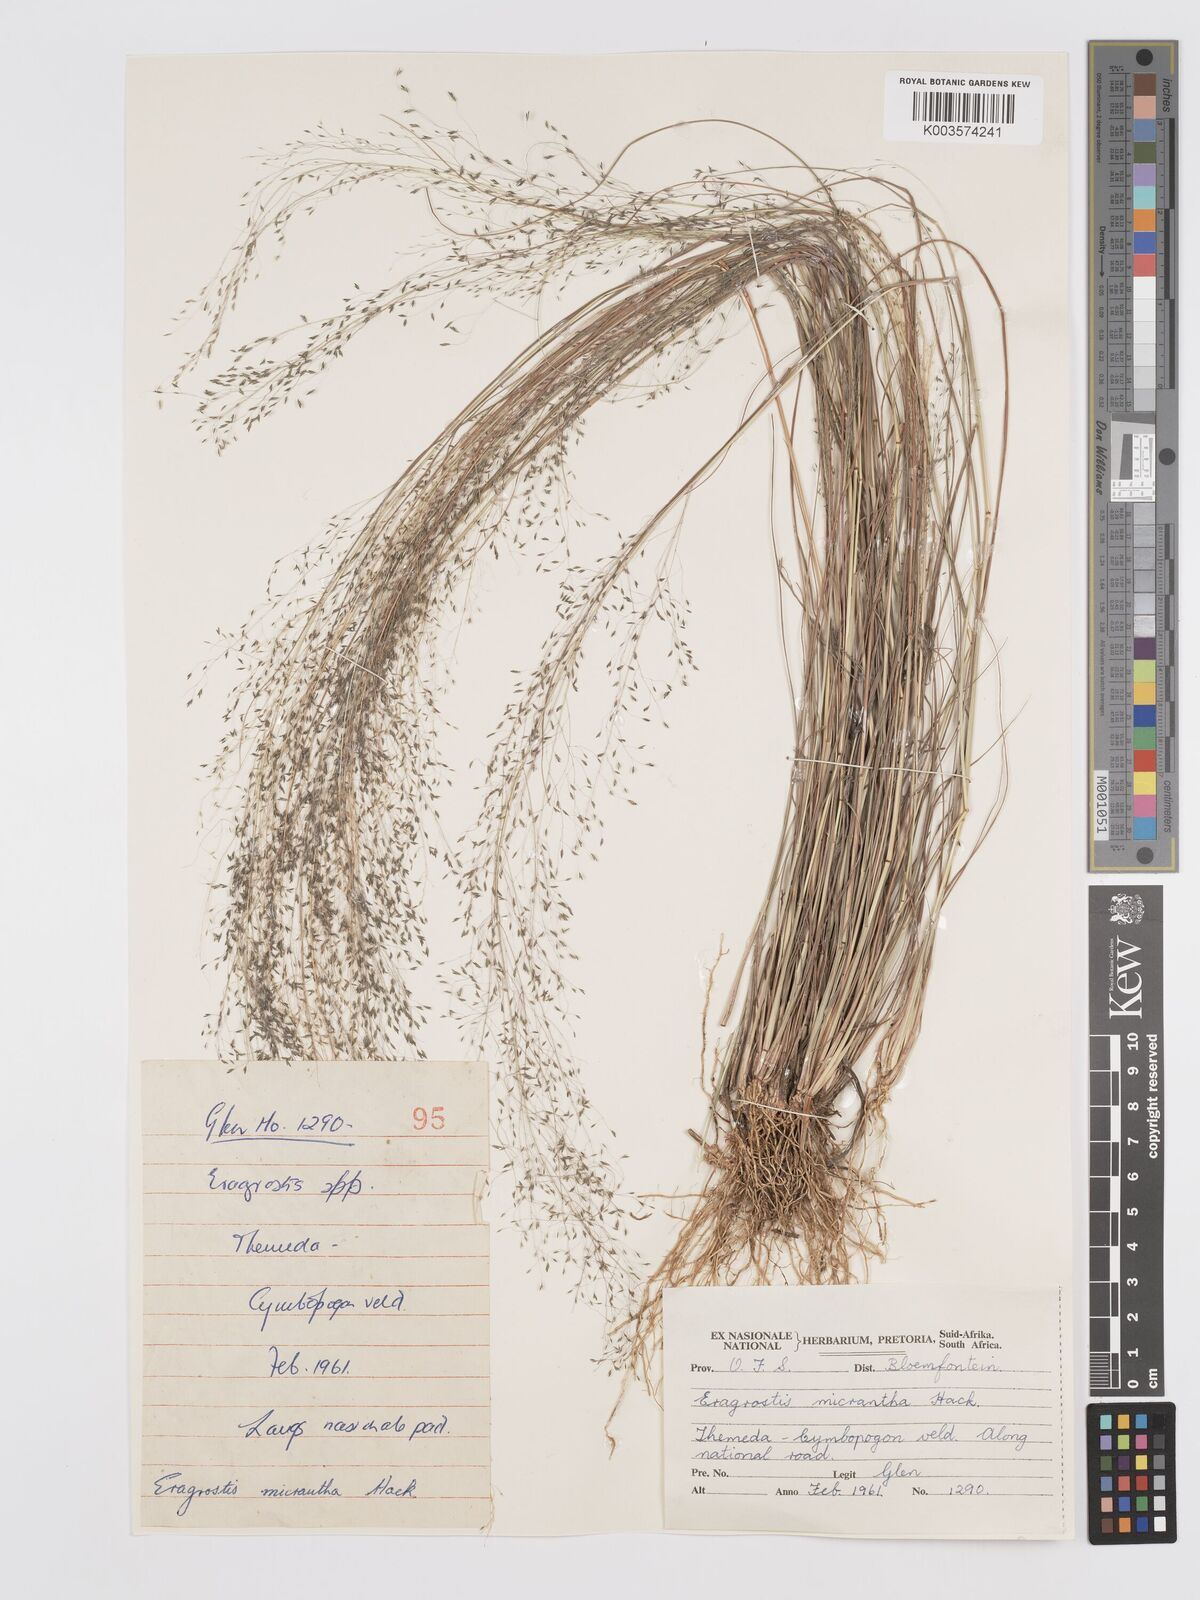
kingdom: Plantae
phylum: Tracheophyta
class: Liliopsida
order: Poales
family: Poaceae
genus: Eragrostis
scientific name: Eragrostis micrantha
